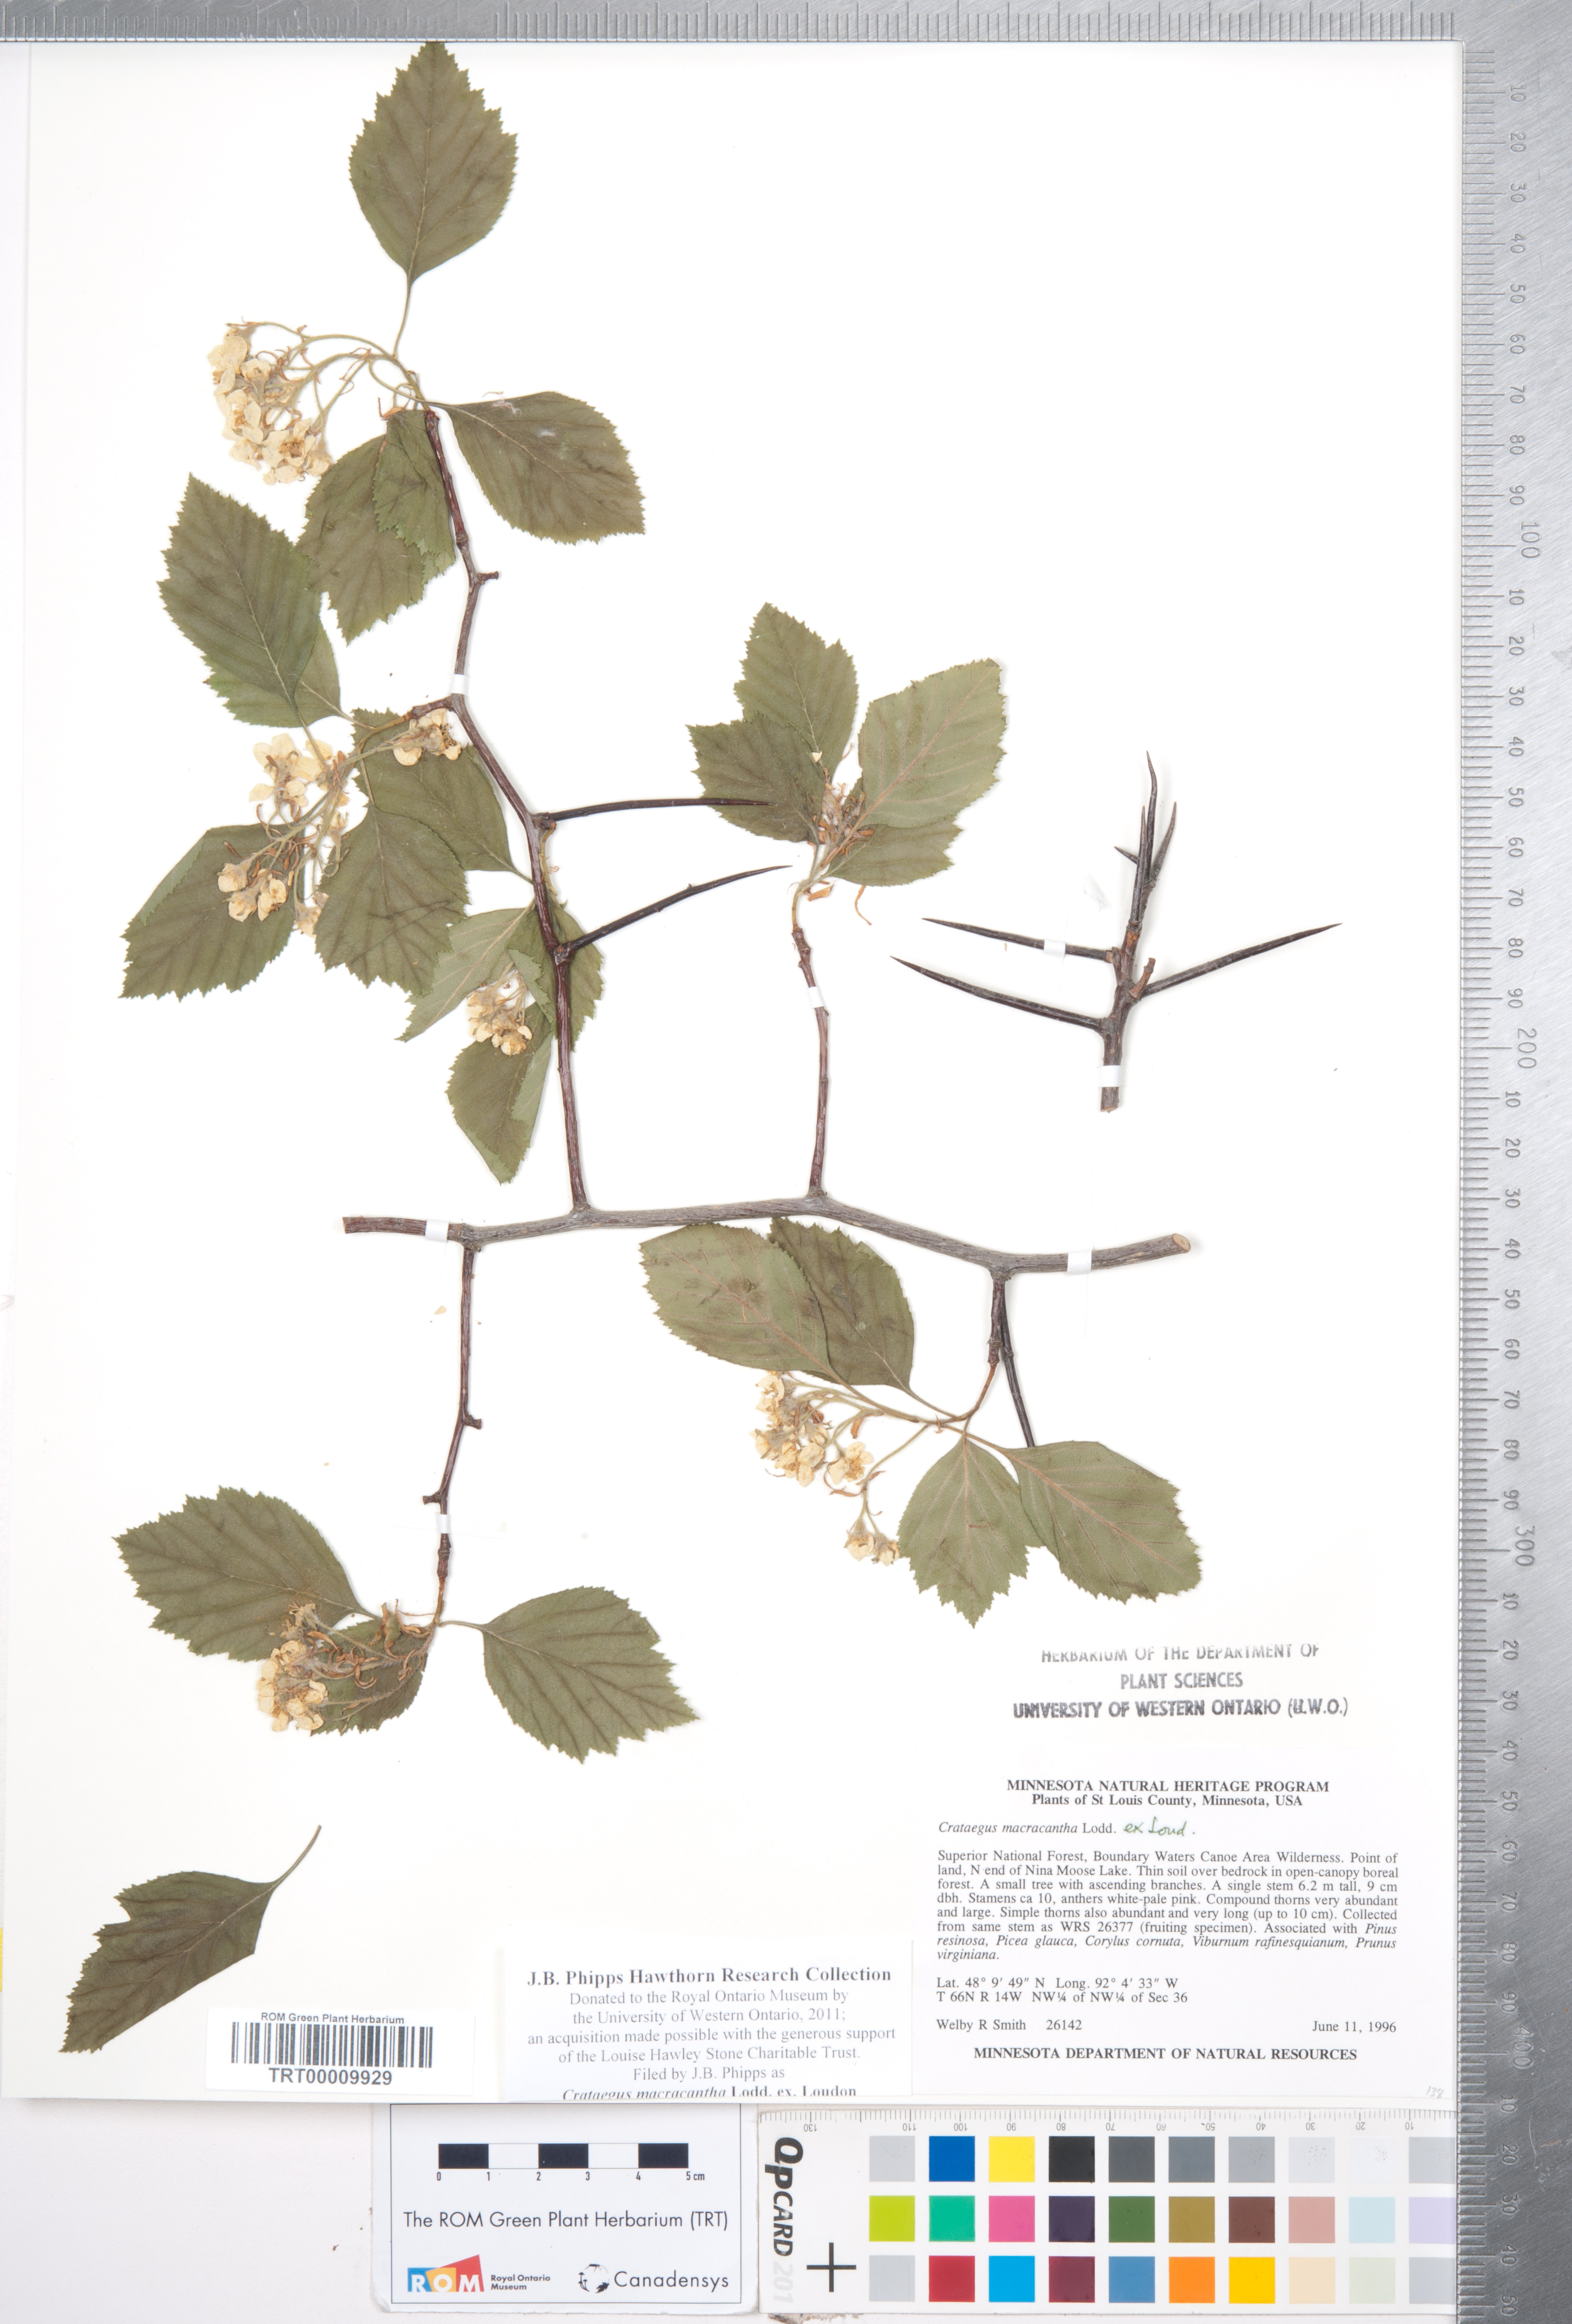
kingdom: Plantae
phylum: Tracheophyta
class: Magnoliopsida
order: Rosales
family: Rosaceae
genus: Crataegus
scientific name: Crataegus macracantha
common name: Large-thorn hawthorn
